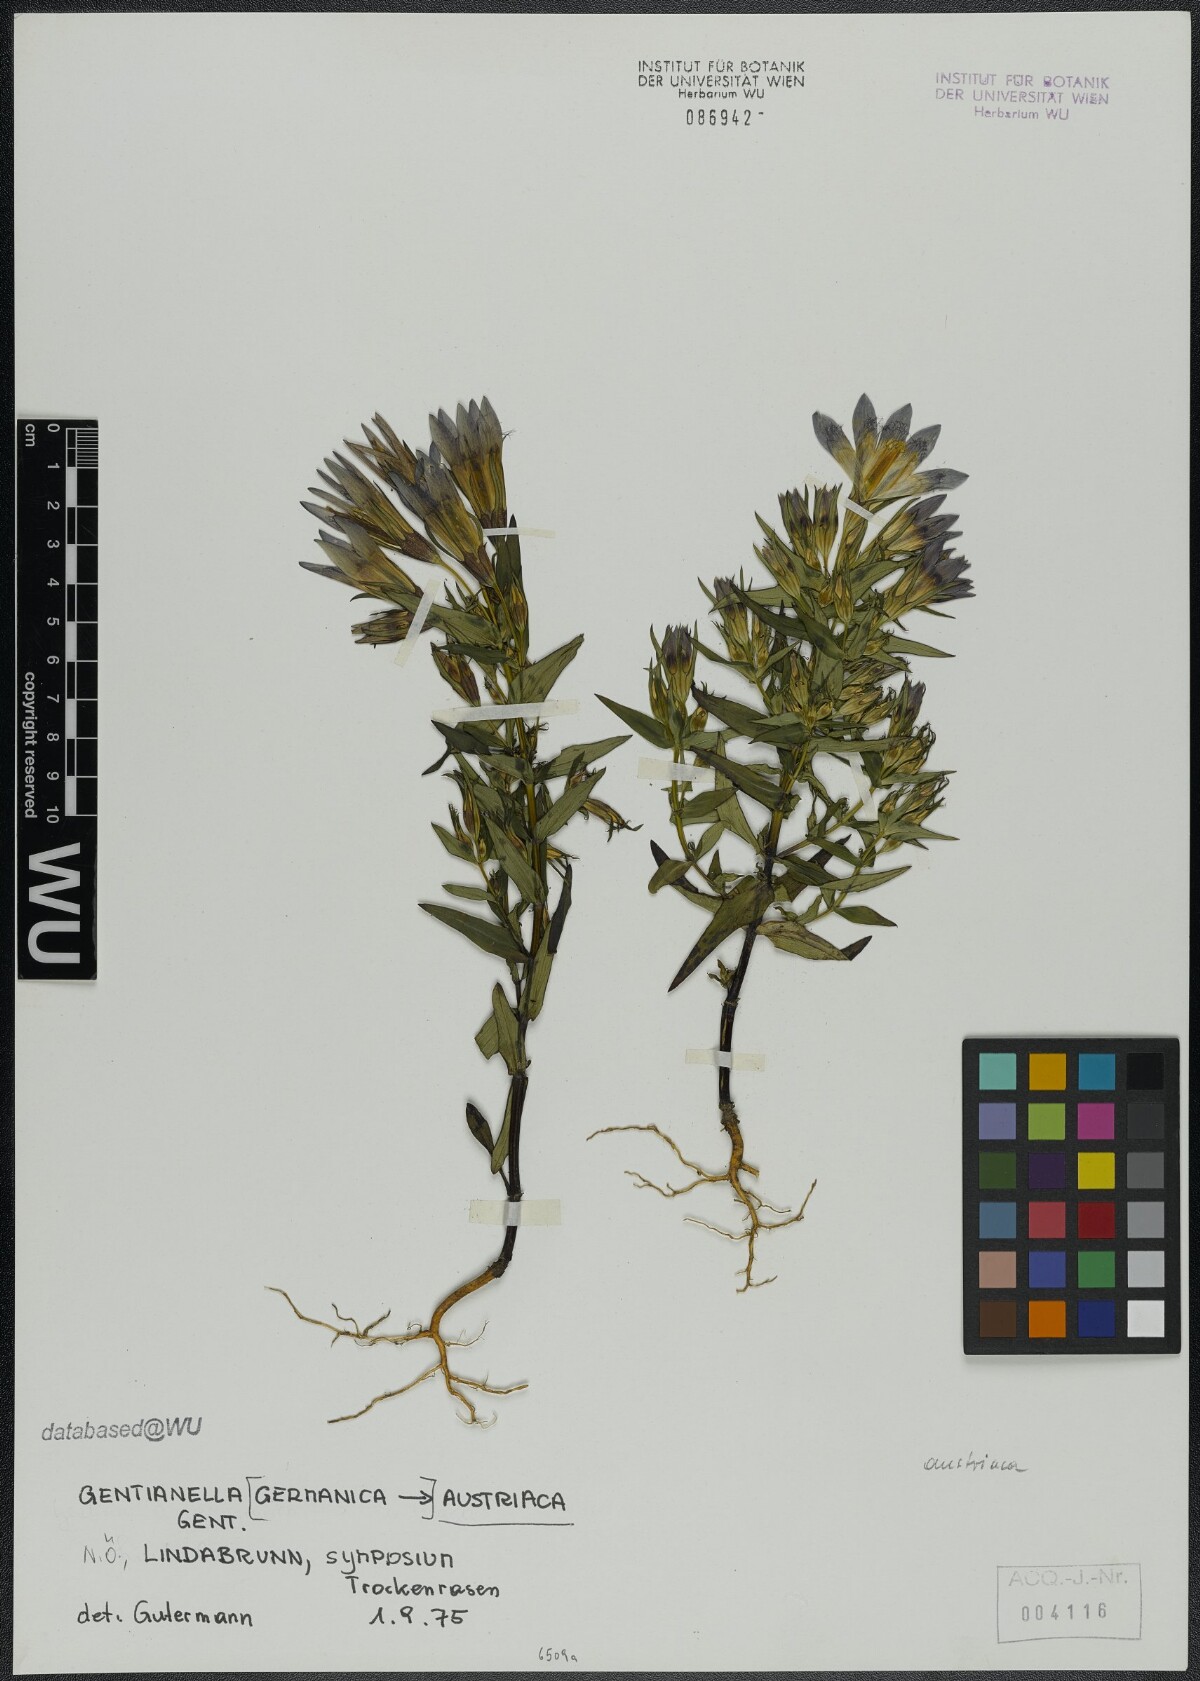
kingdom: Plantae
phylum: Tracheophyta
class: Magnoliopsida
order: Gentianales
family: Gentianaceae
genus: Gentianella
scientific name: Gentianella austriaca
